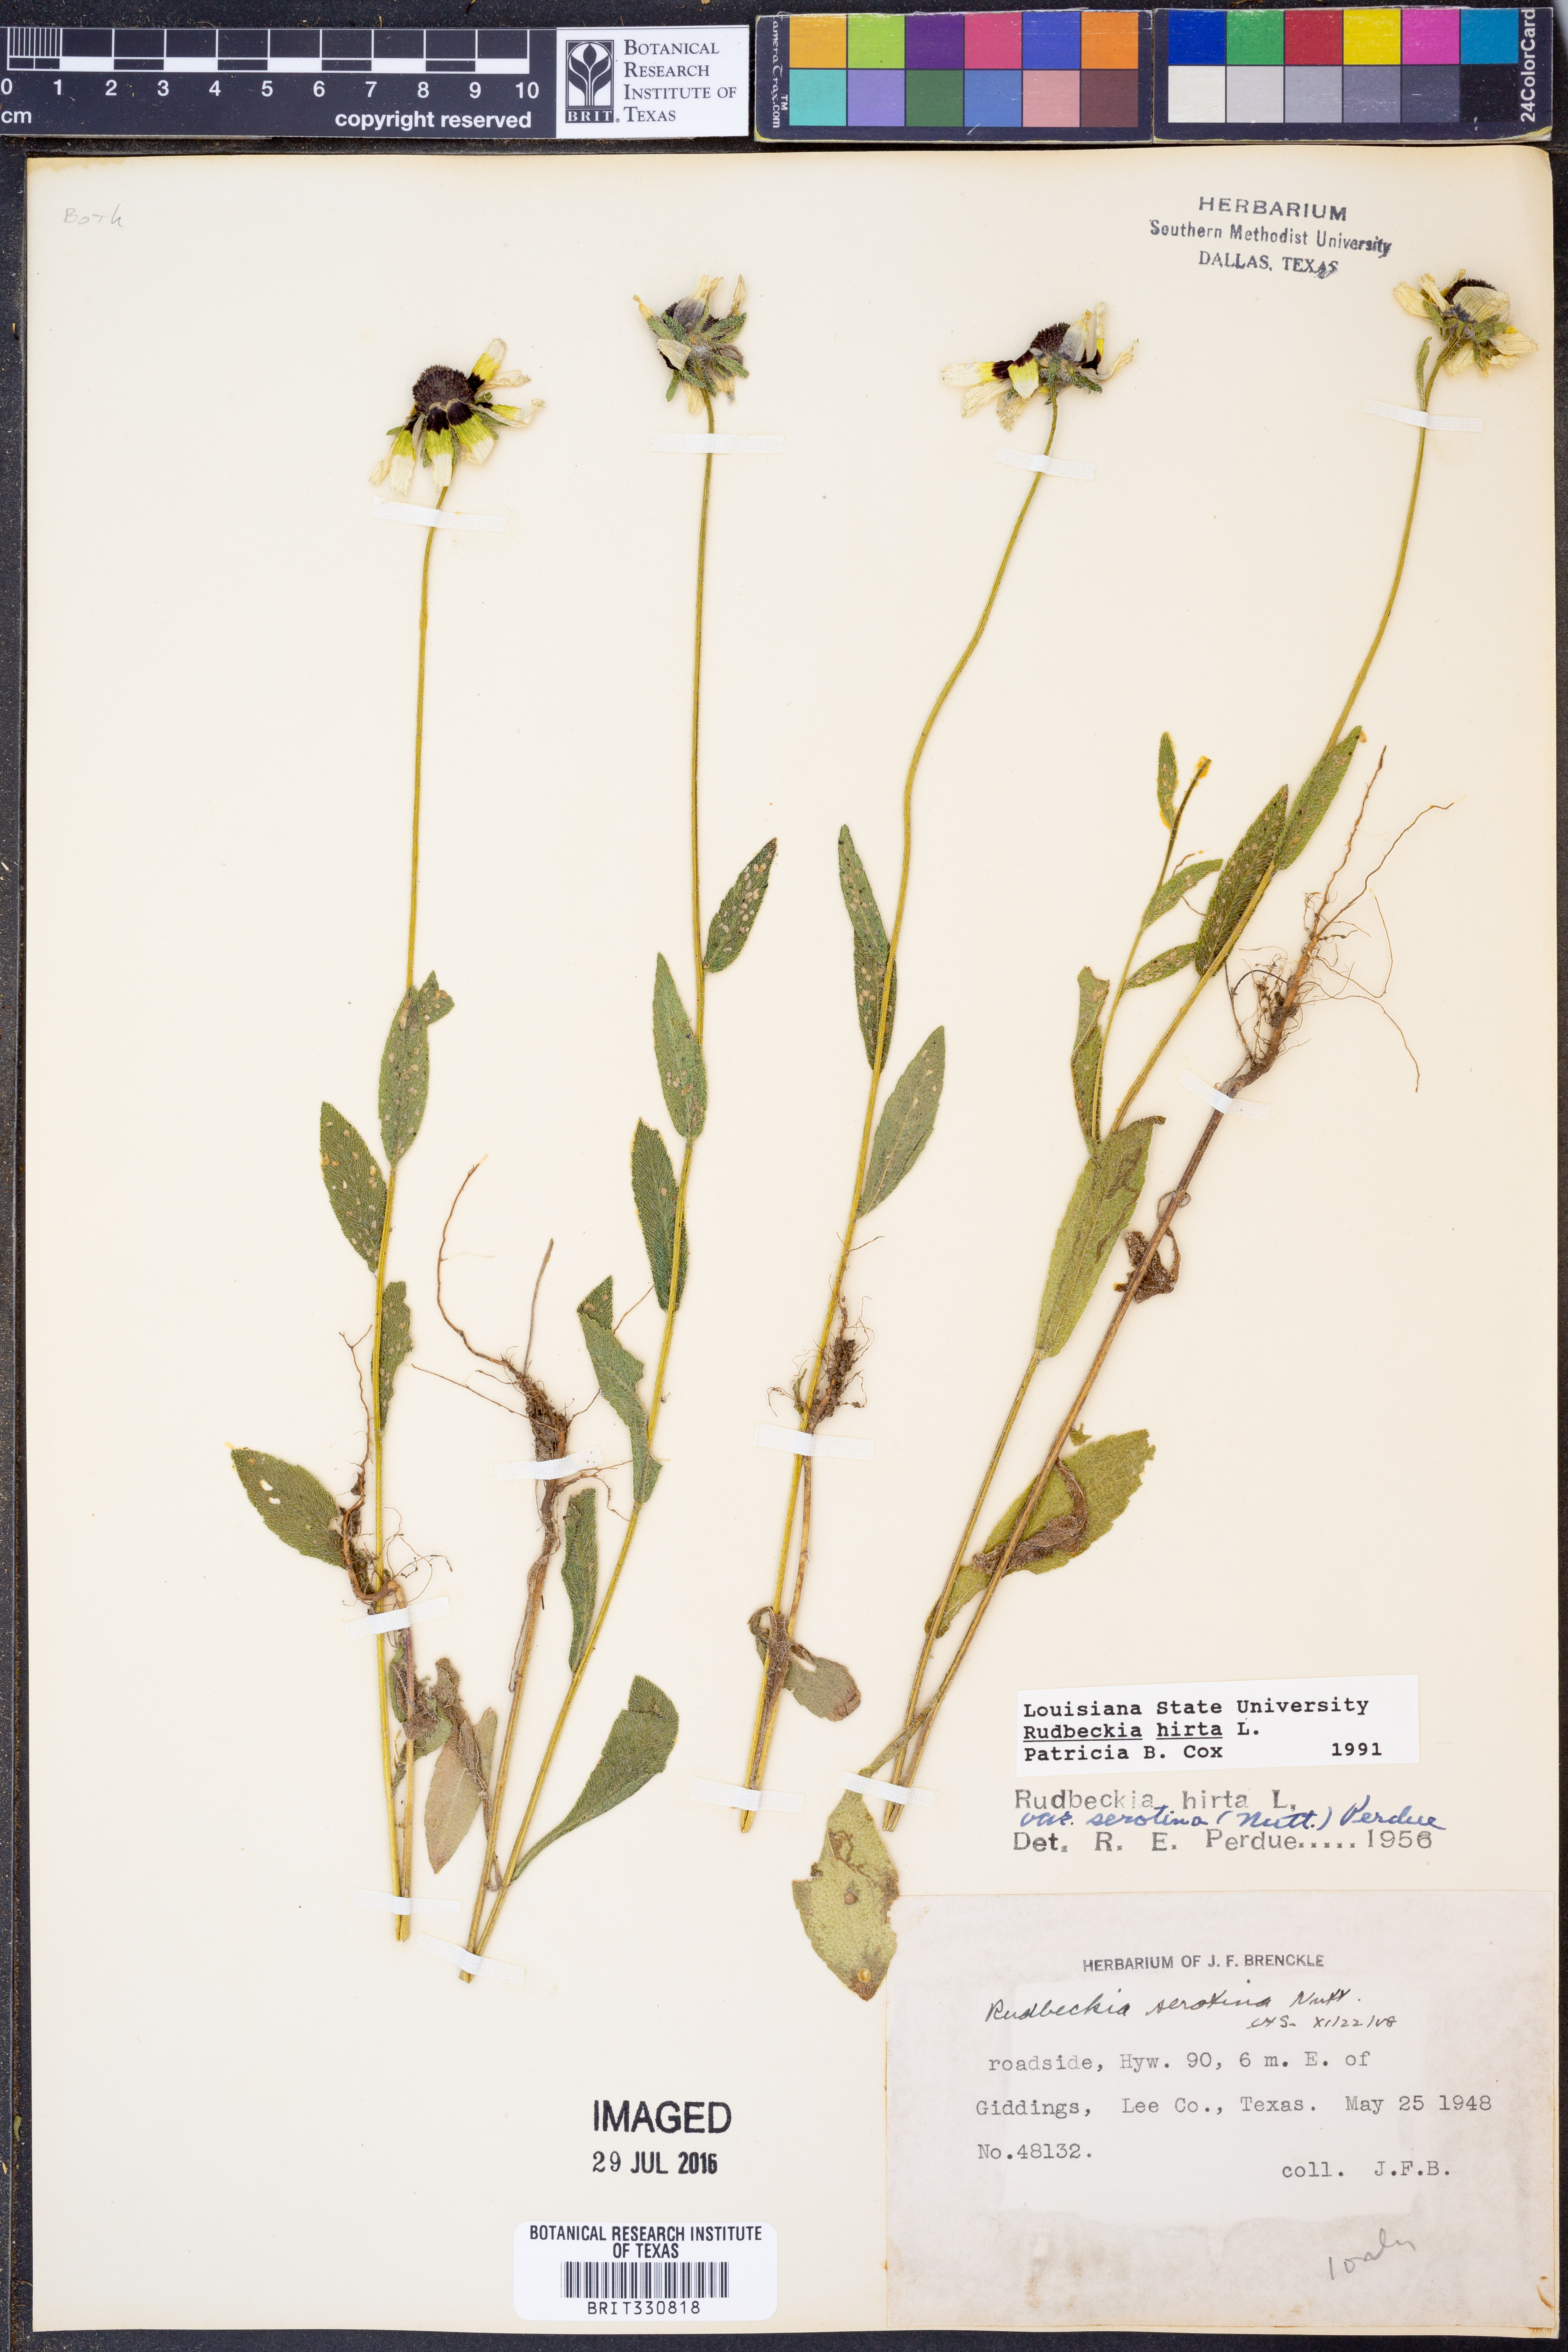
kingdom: Plantae
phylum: Tracheophyta
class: Magnoliopsida
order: Asterales
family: Asteraceae
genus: Rudbeckia
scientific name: Rudbeckia hirta
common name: Black-eyed-susan
